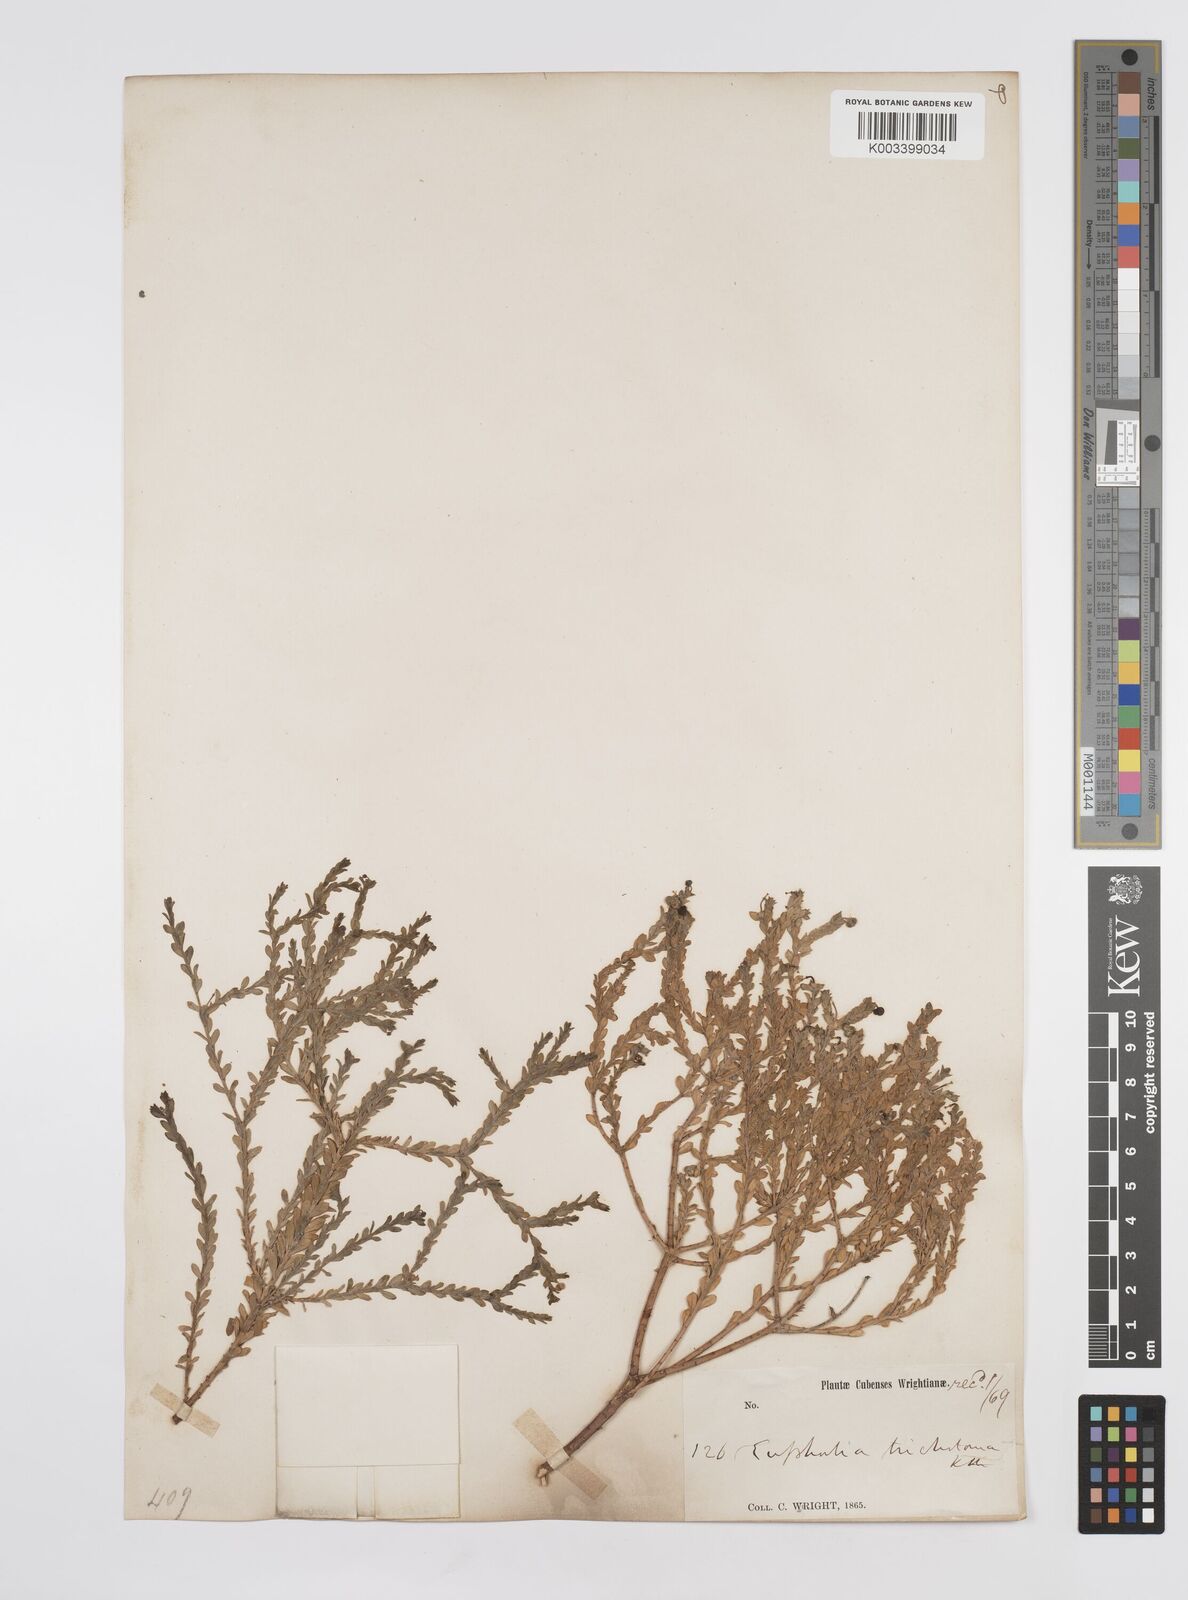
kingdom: Plantae
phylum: Tracheophyta
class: Magnoliopsida
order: Malpighiales
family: Euphorbiaceae
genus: Euphorbia
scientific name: Euphorbia trichotoma
